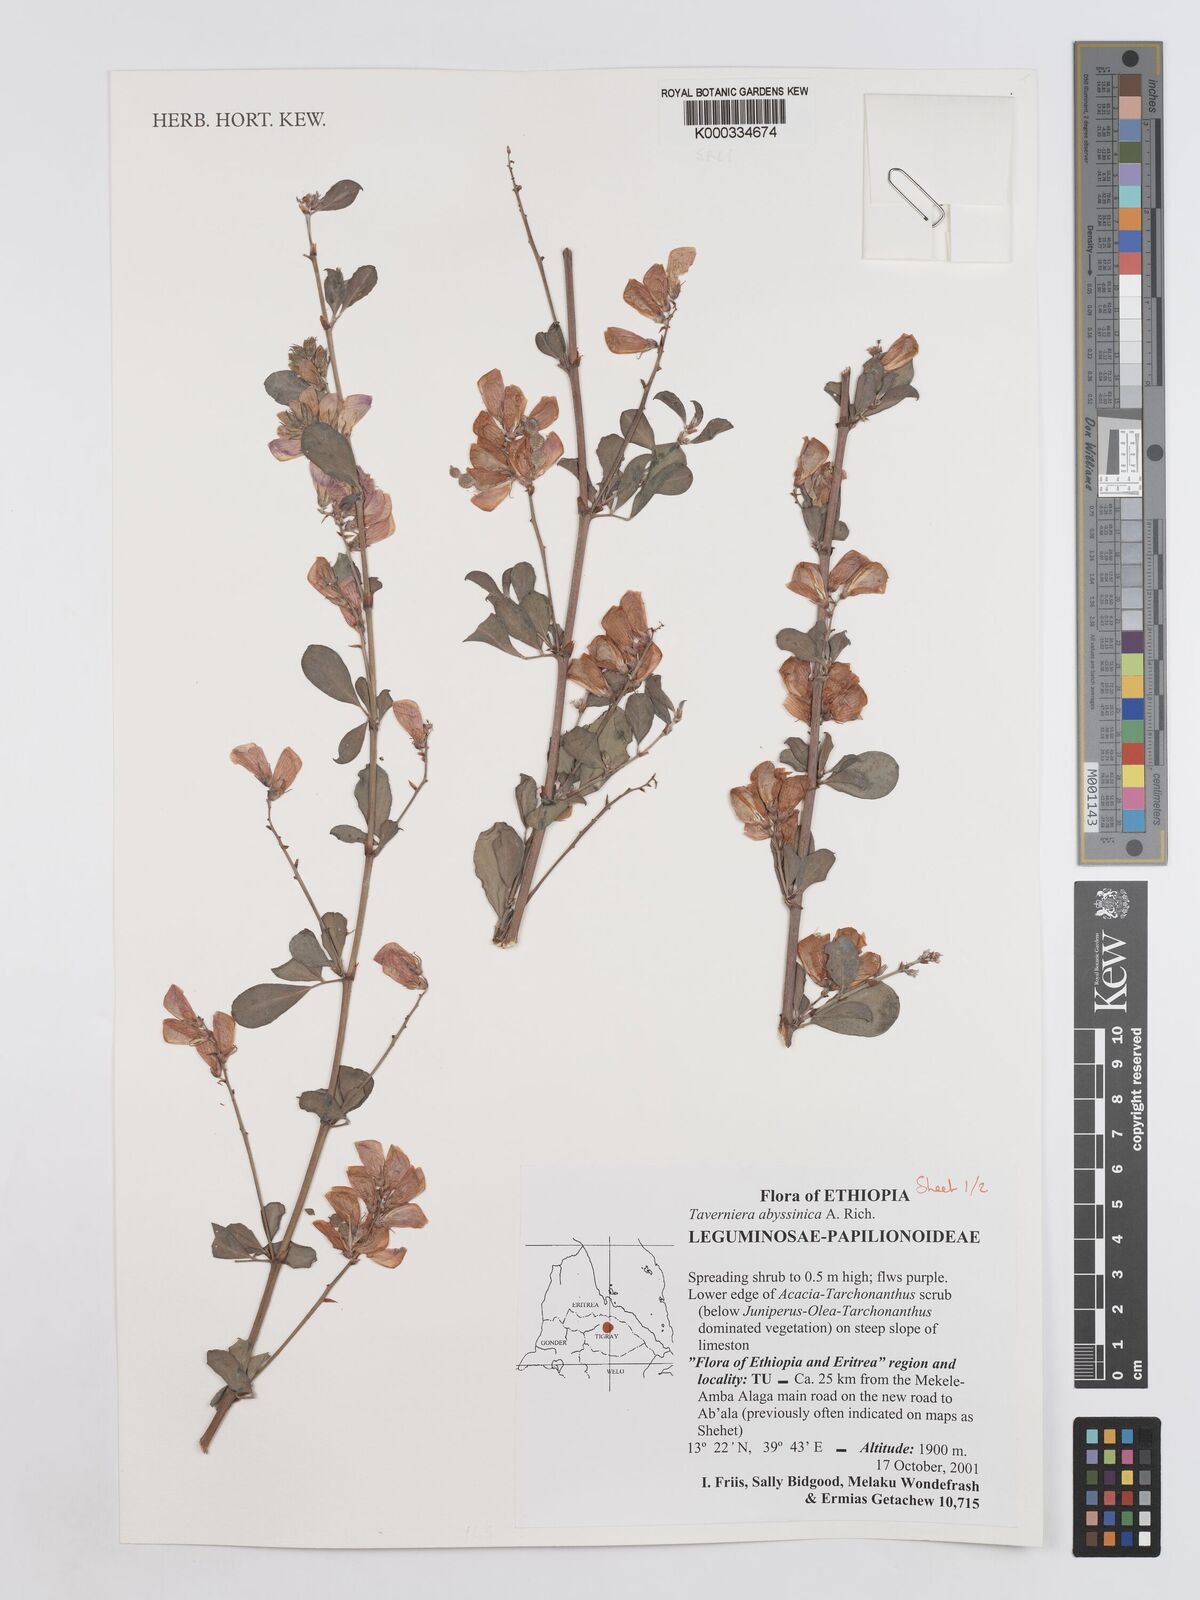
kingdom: Plantae
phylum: Tracheophyta
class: Magnoliopsida
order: Fabales
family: Fabaceae
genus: Taverniera
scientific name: Taverniera abyssinica
